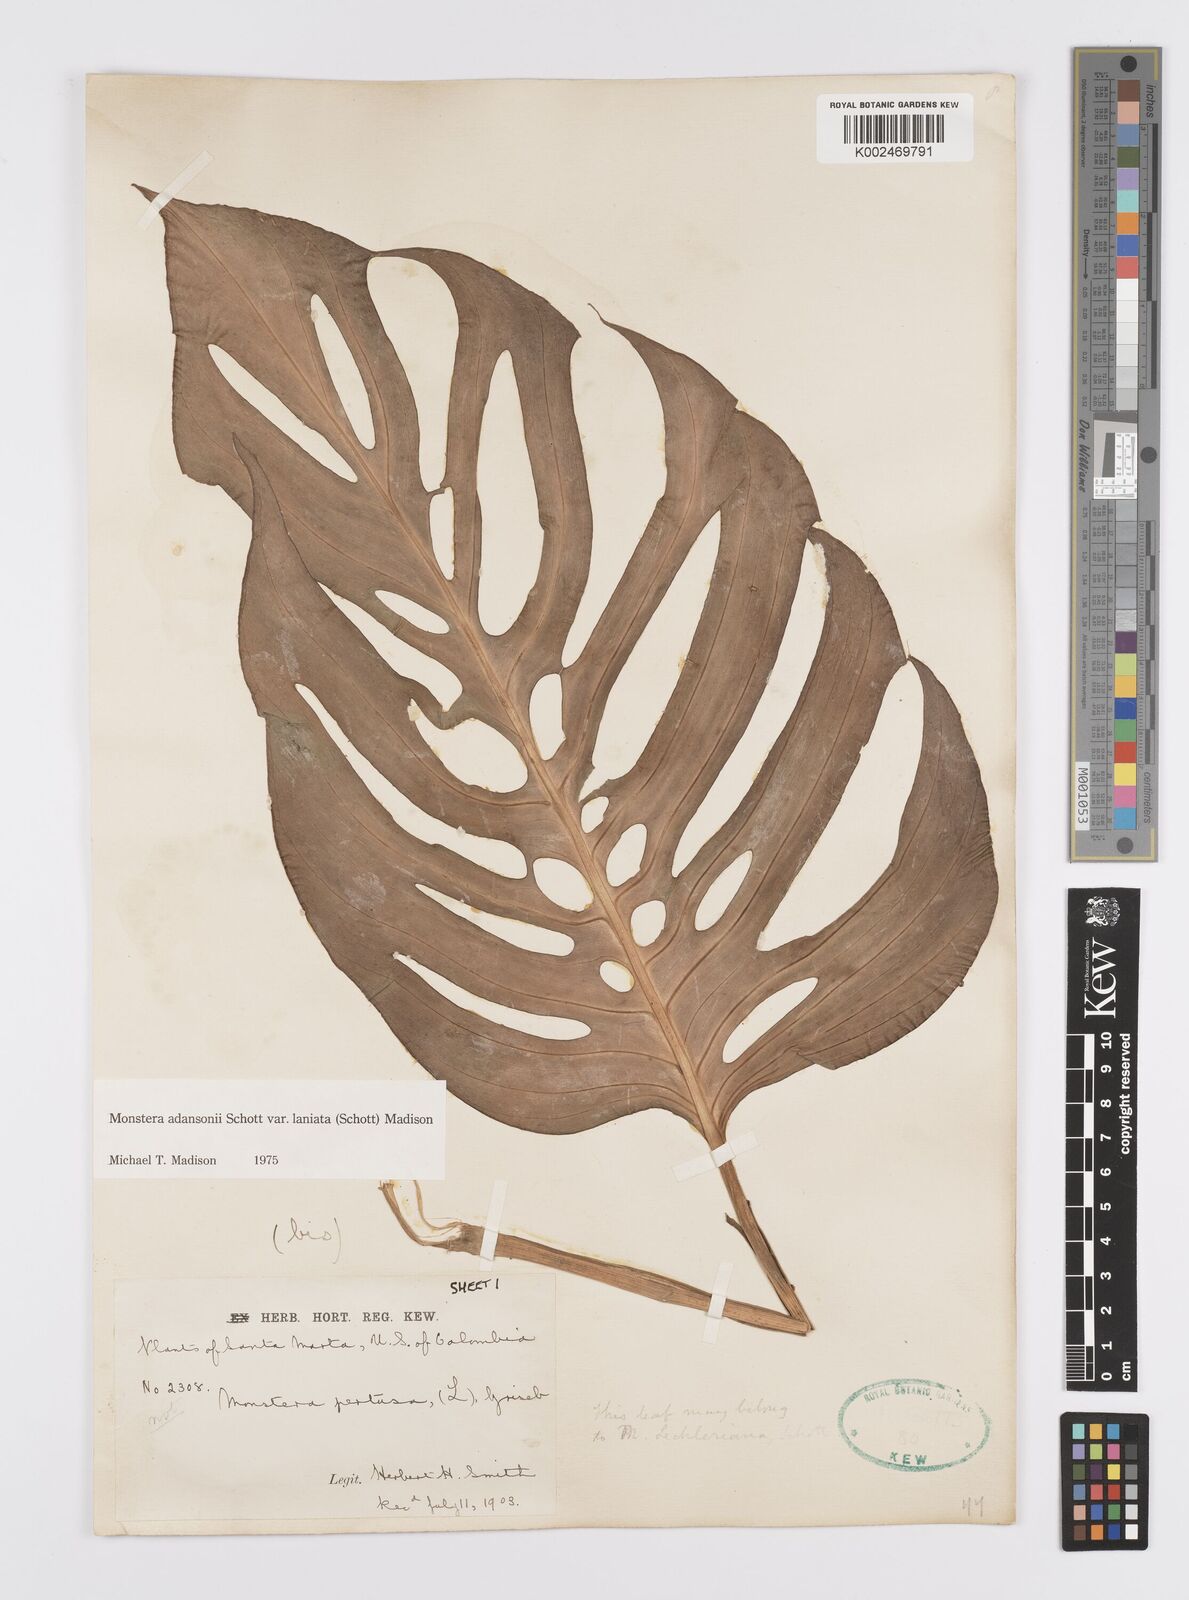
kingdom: Plantae
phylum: Tracheophyta
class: Liliopsida
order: Alismatales
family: Araceae
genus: Monstera
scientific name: Monstera adansonii
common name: Tarovine
